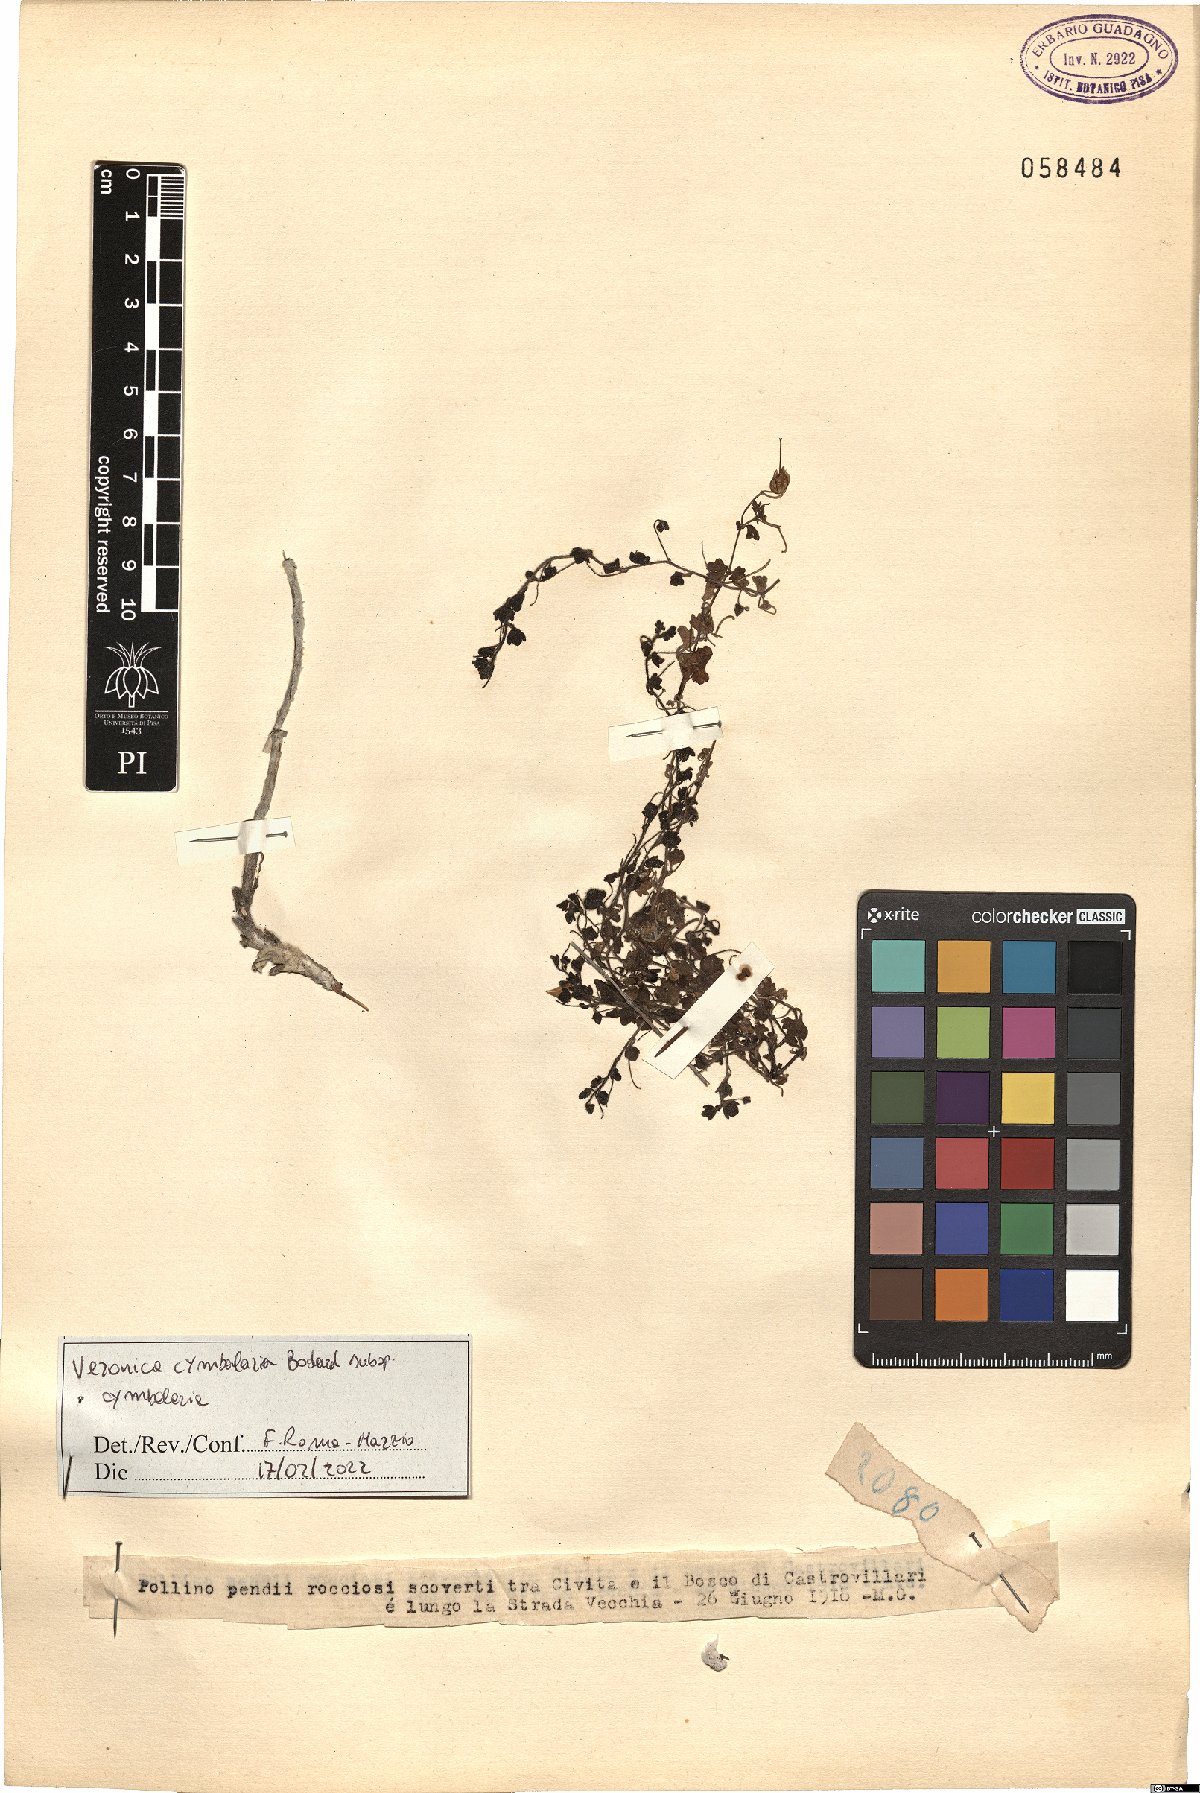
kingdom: Plantae
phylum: Tracheophyta
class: Magnoliopsida
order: Lamiales
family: Plantaginaceae
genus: Veronica
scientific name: Veronica cymbalaria
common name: Pale speedwell
